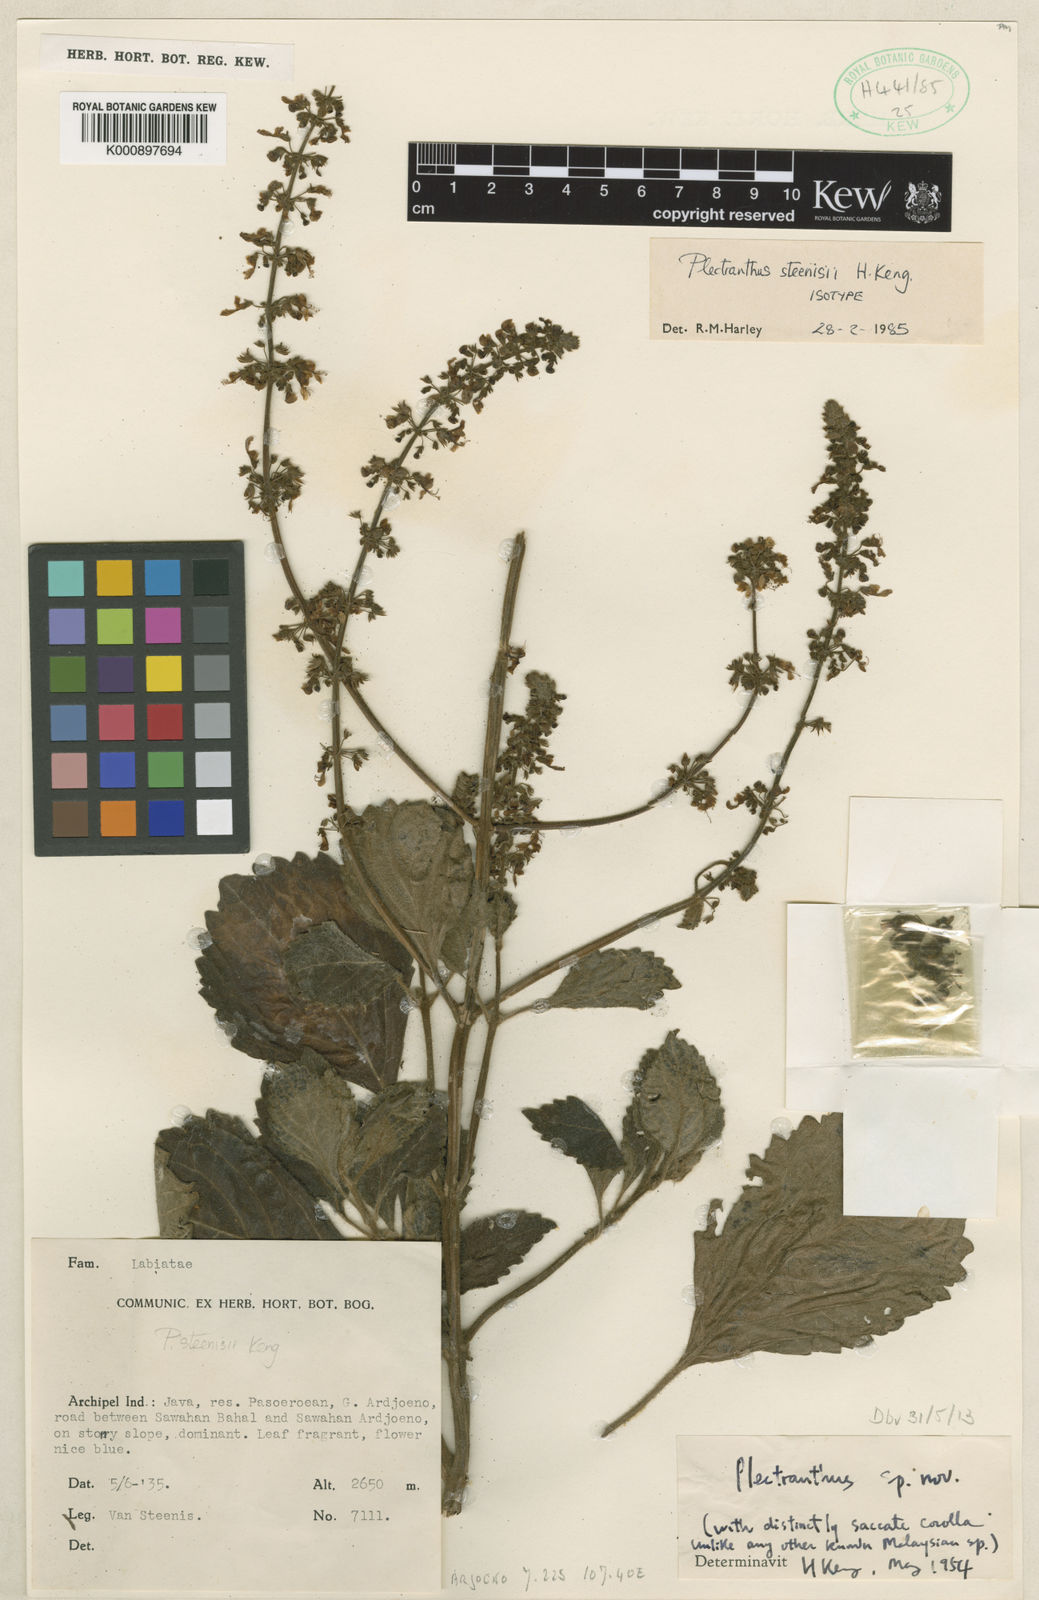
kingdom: Plantae
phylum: Tracheophyta
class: Magnoliopsida
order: Lamiales
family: Lamiaceae
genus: Coleus
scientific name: Coleus steenisii
